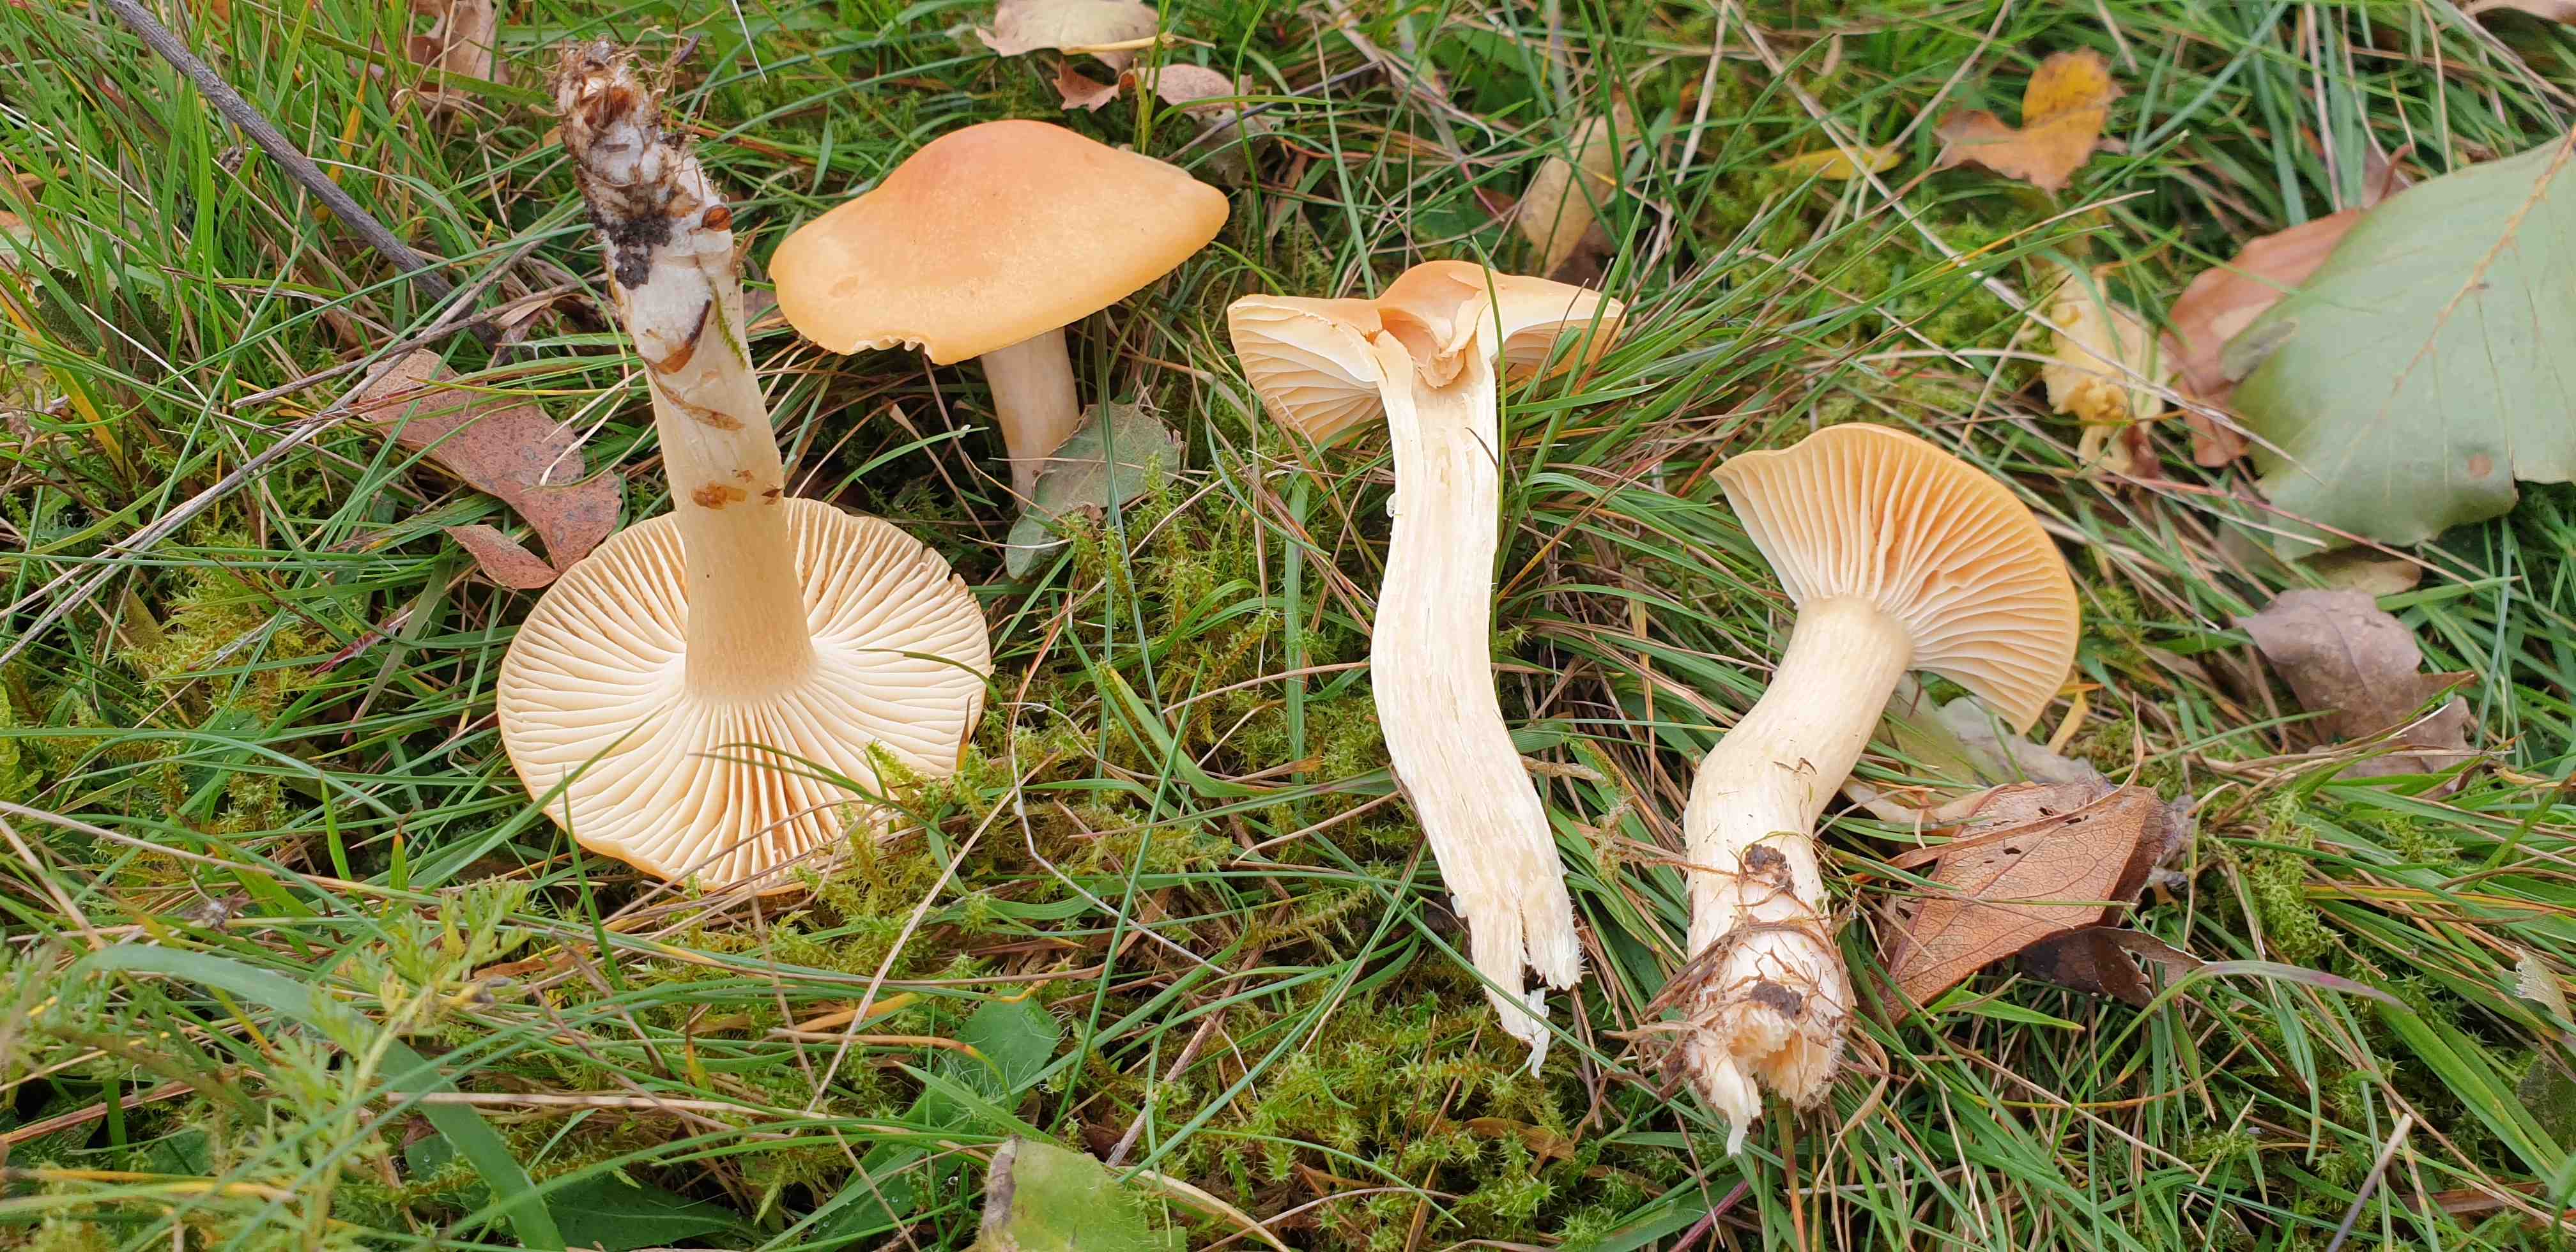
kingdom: Fungi
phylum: Basidiomycota
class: Agaricomycetes
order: Agaricales
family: Hygrophoraceae
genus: Cuphophyllus
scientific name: Cuphophyllus pratensis
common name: eng-vokshat
